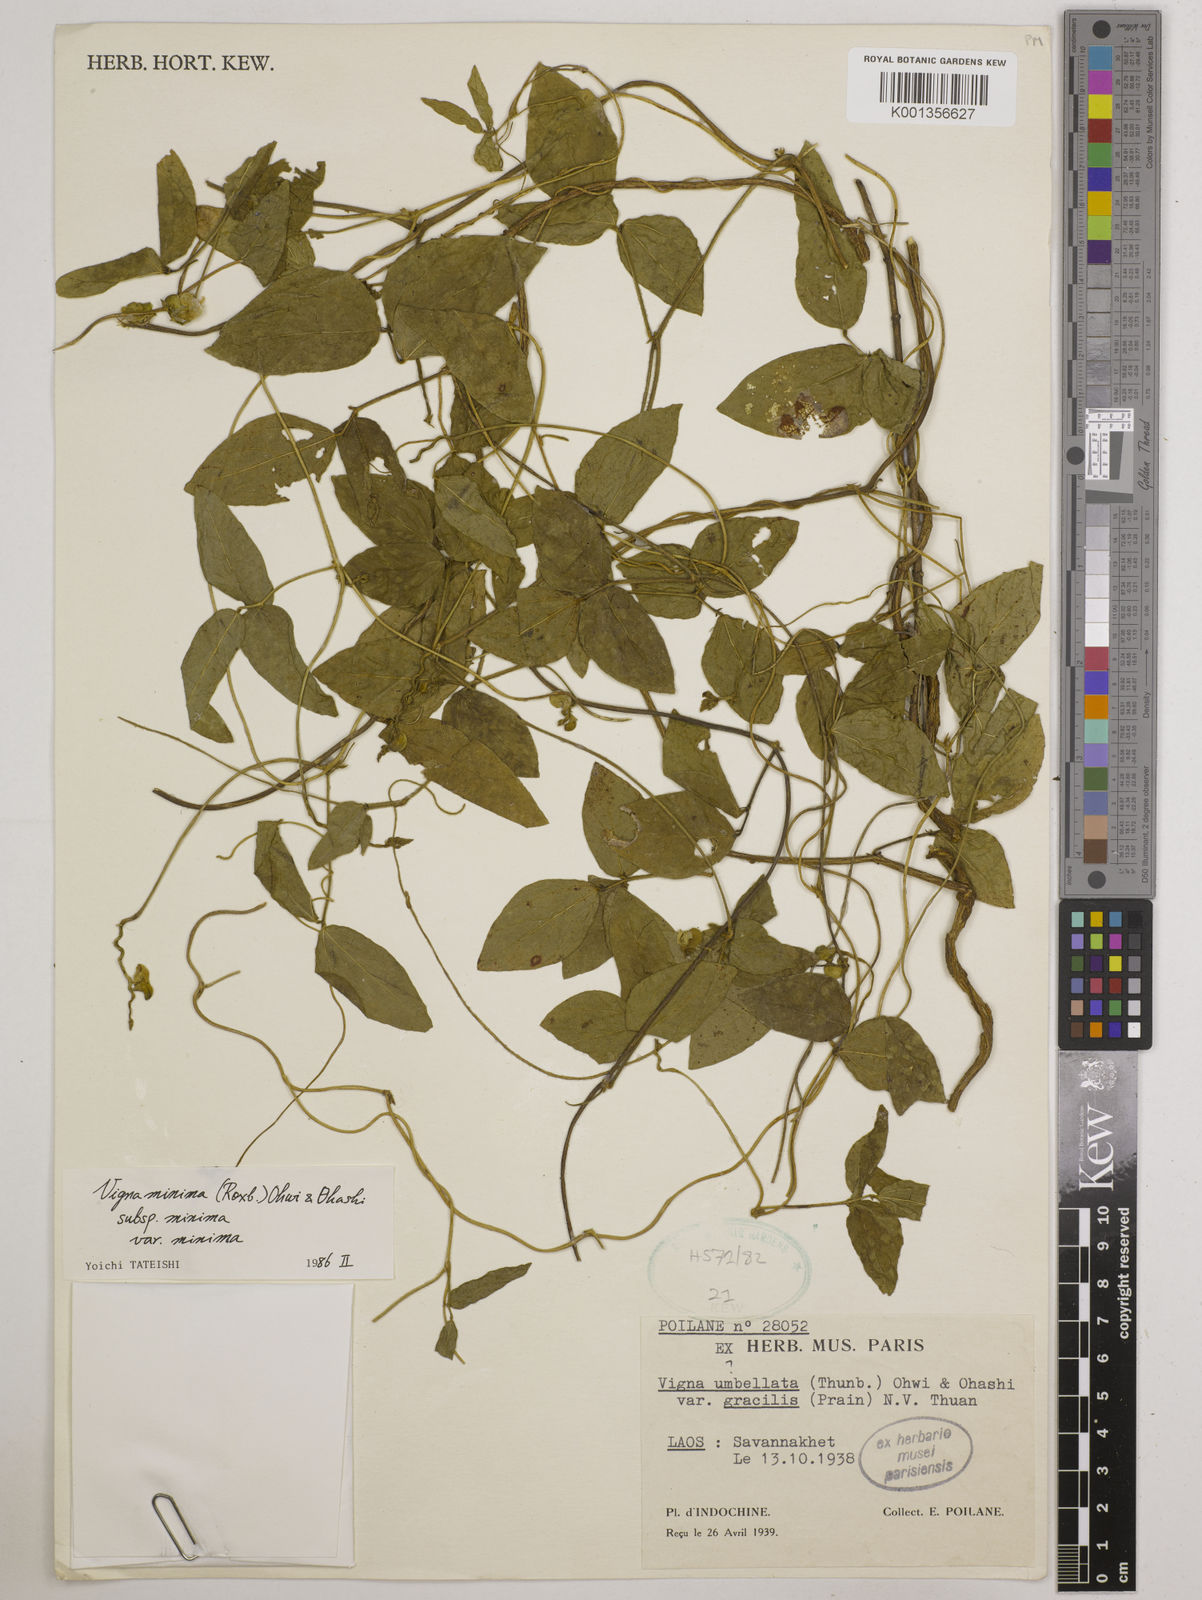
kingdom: Plantae
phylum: Tracheophyta
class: Magnoliopsida
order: Fabales
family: Fabaceae
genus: Vigna
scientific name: Vigna
